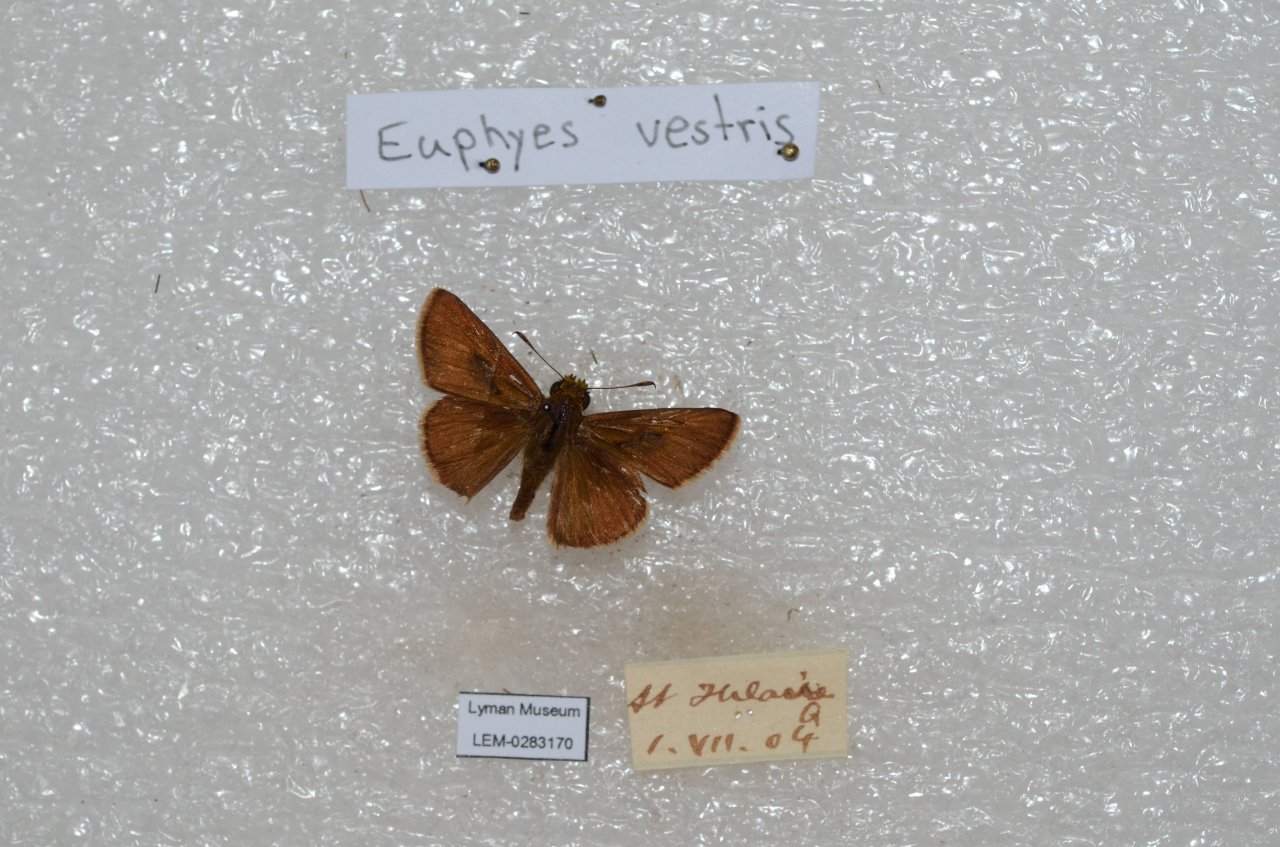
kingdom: Animalia
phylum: Arthropoda
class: Insecta
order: Lepidoptera
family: Hesperiidae
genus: Euphyes
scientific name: Euphyes vestris
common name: Dun Skipper
